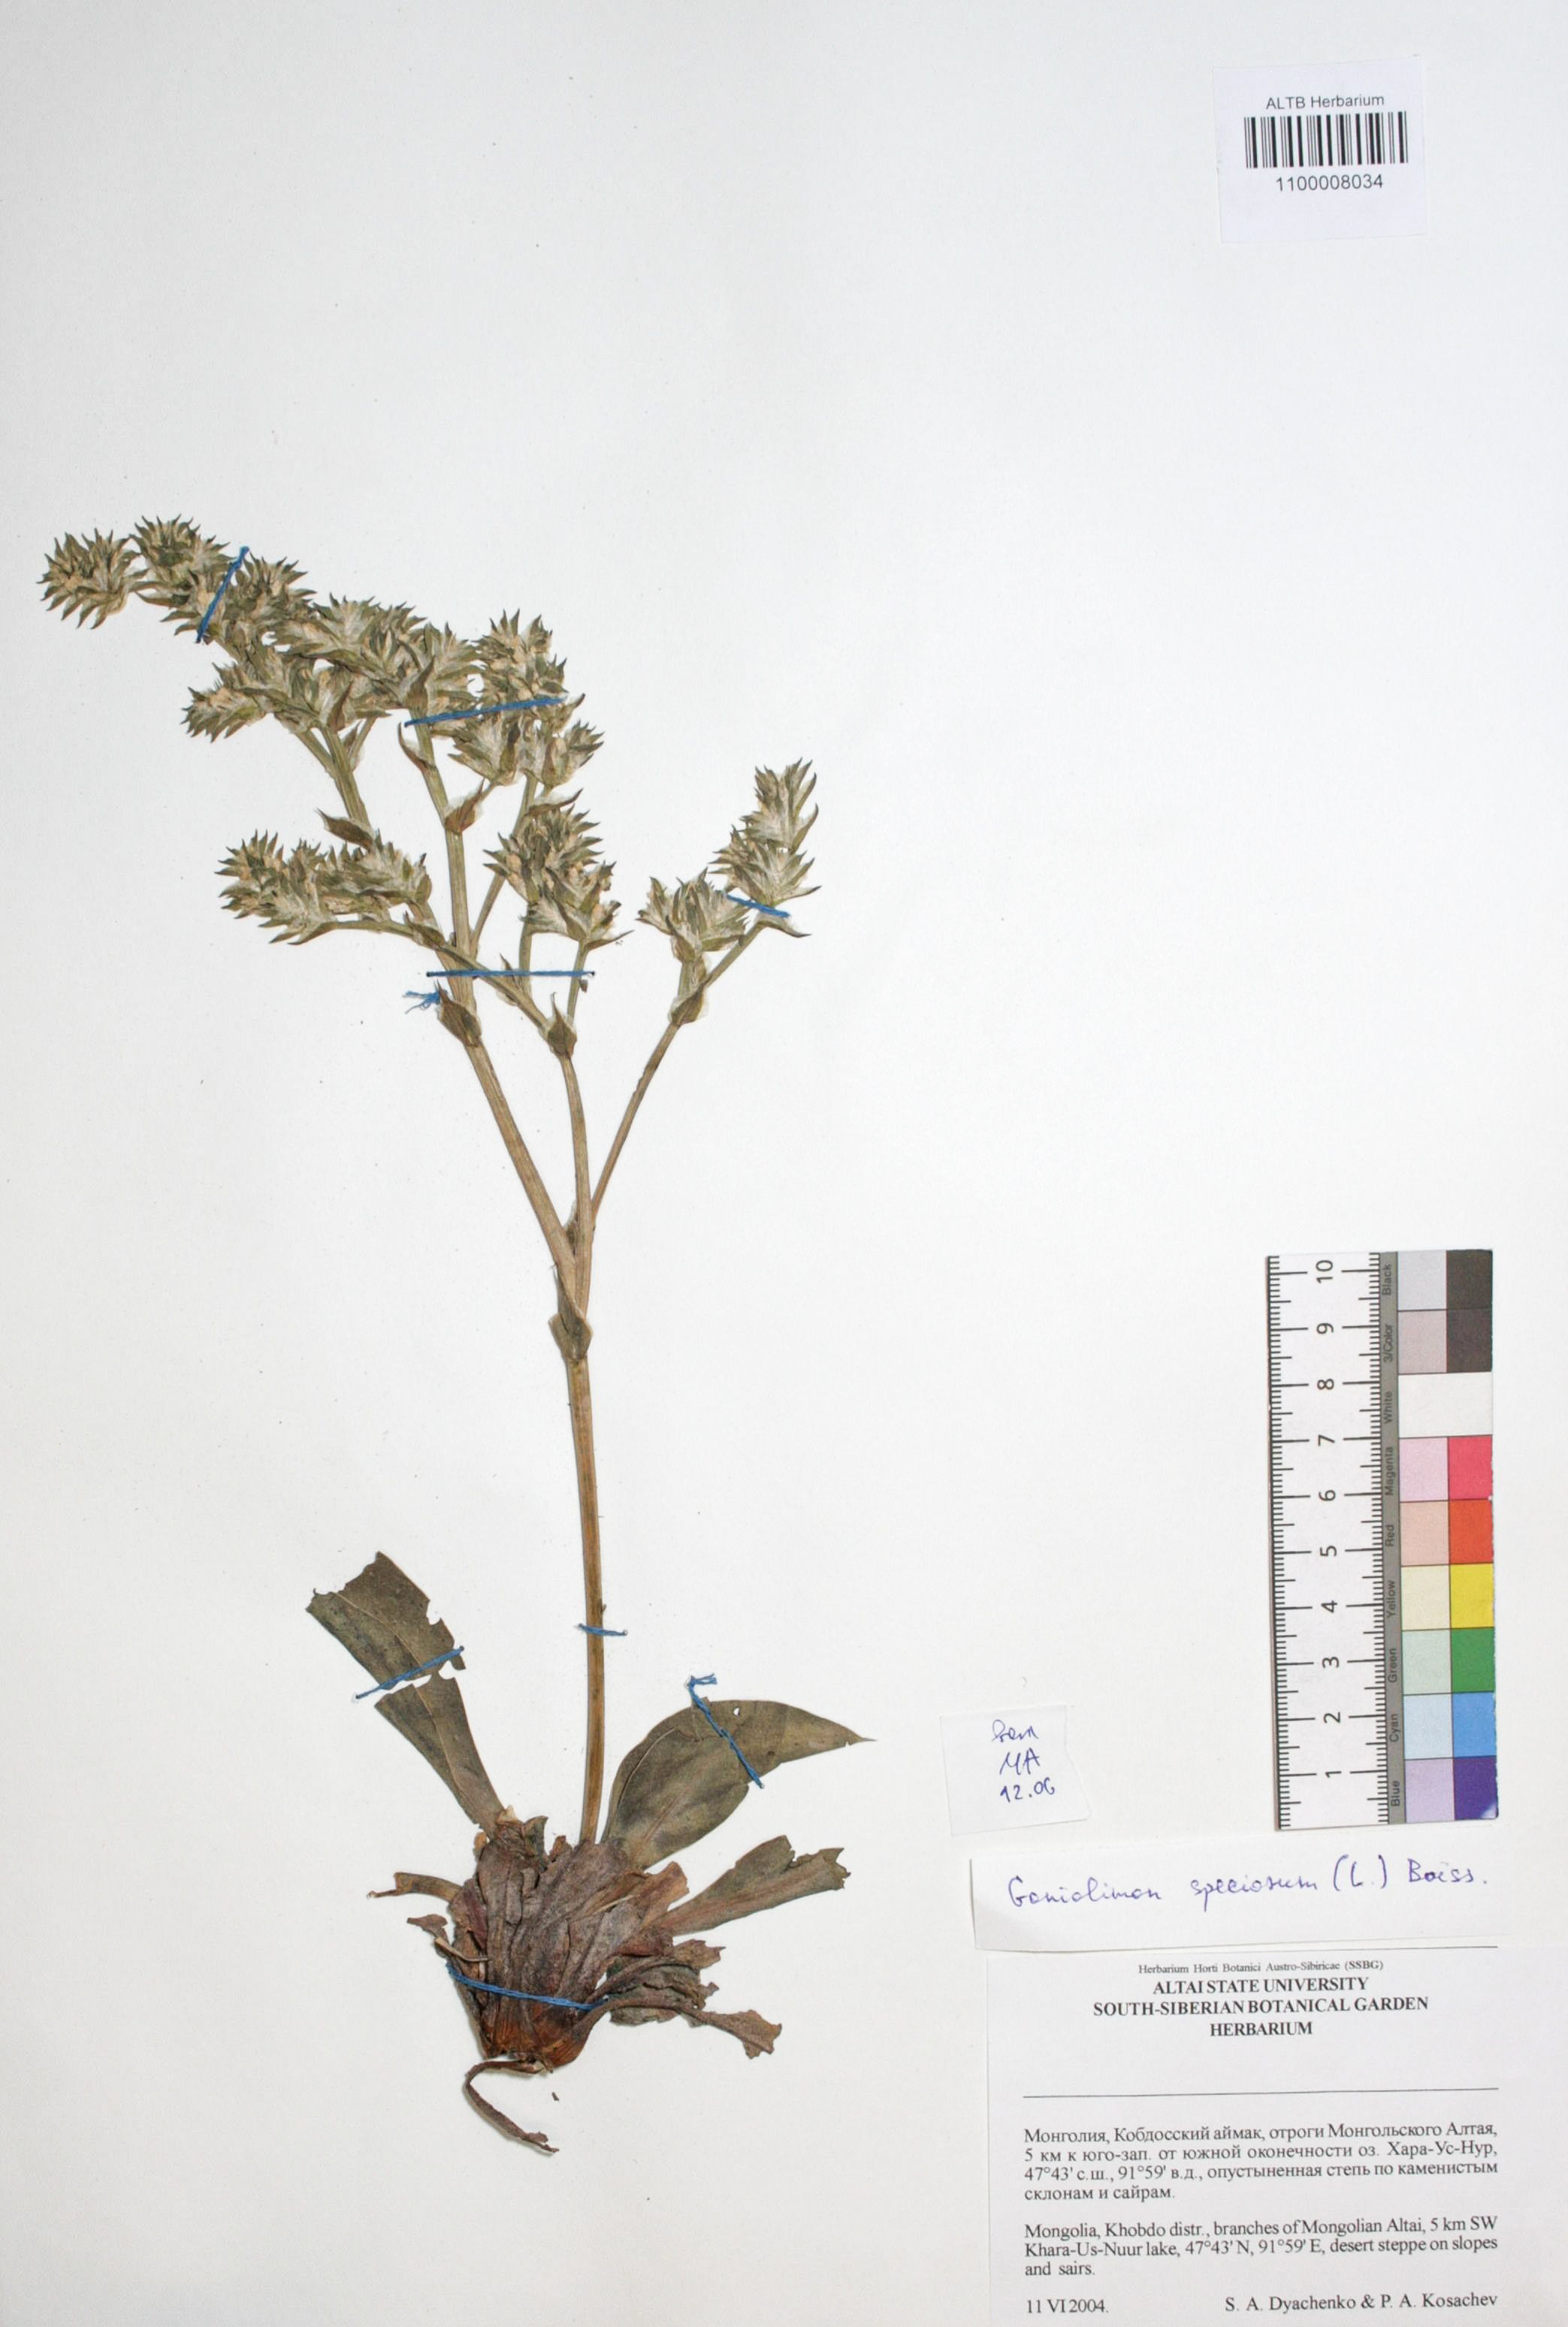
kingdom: Plantae
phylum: Tracheophyta
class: Magnoliopsida
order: Caryophyllales
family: Plumbaginaceae
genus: Goniolimon
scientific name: Goniolimon speciosum
